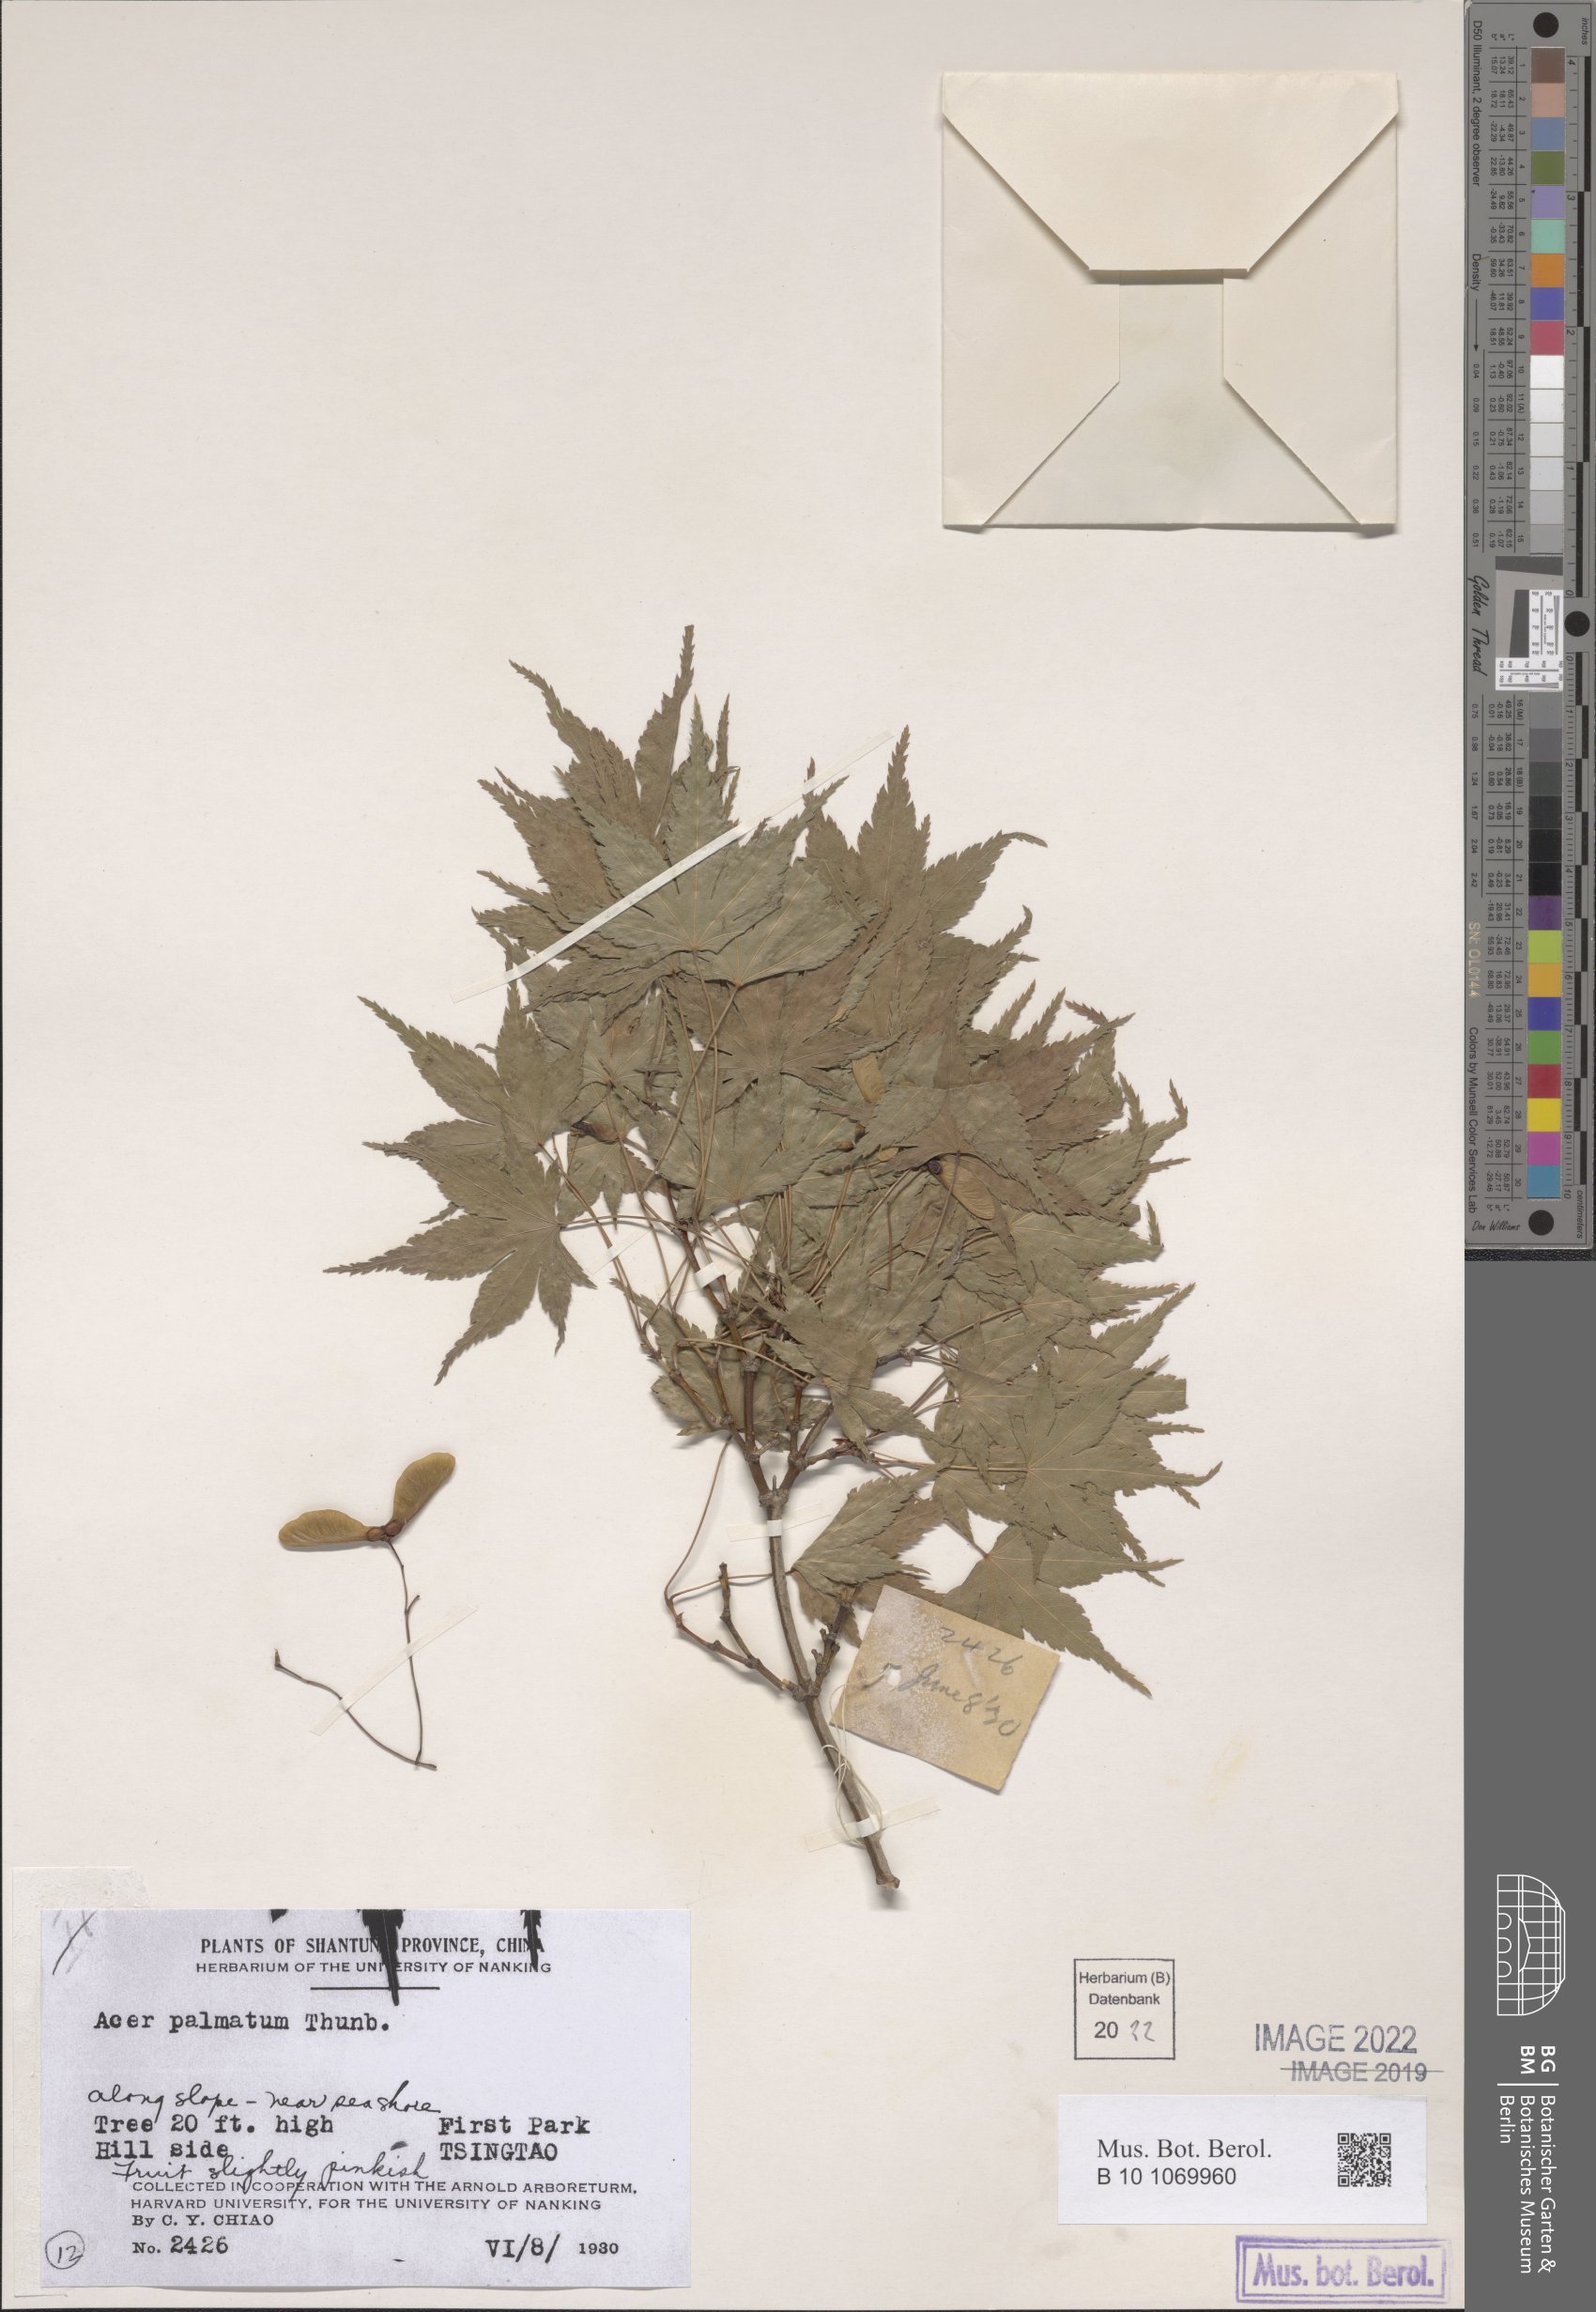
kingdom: Plantae
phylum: Tracheophyta
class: Magnoliopsida
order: Sapindales
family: Sapindaceae
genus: Acer
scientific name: Acer palmatum
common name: Japanese maple
